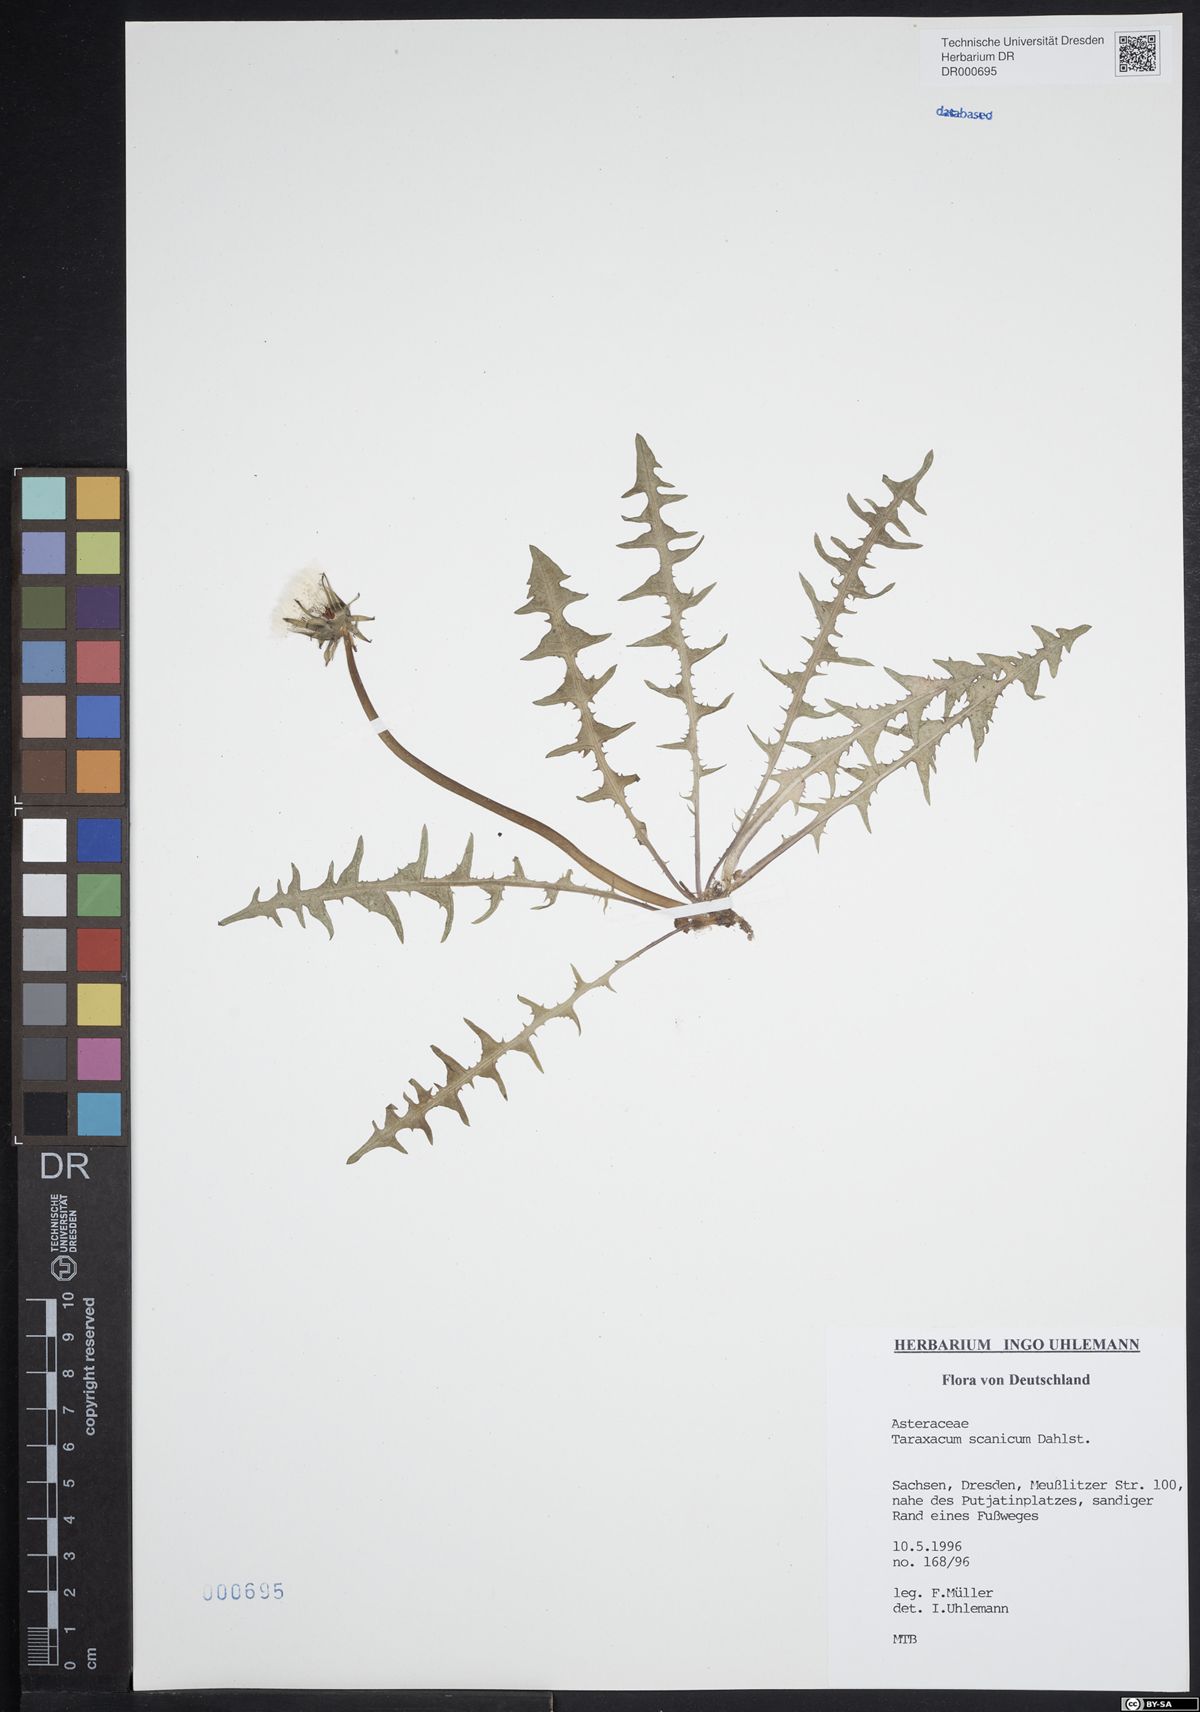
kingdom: Plantae
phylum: Tracheophyta
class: Magnoliopsida
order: Asterales
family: Asteraceae
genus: Taraxacum
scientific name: Taraxacum scanicum
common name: Skåne dandelion
